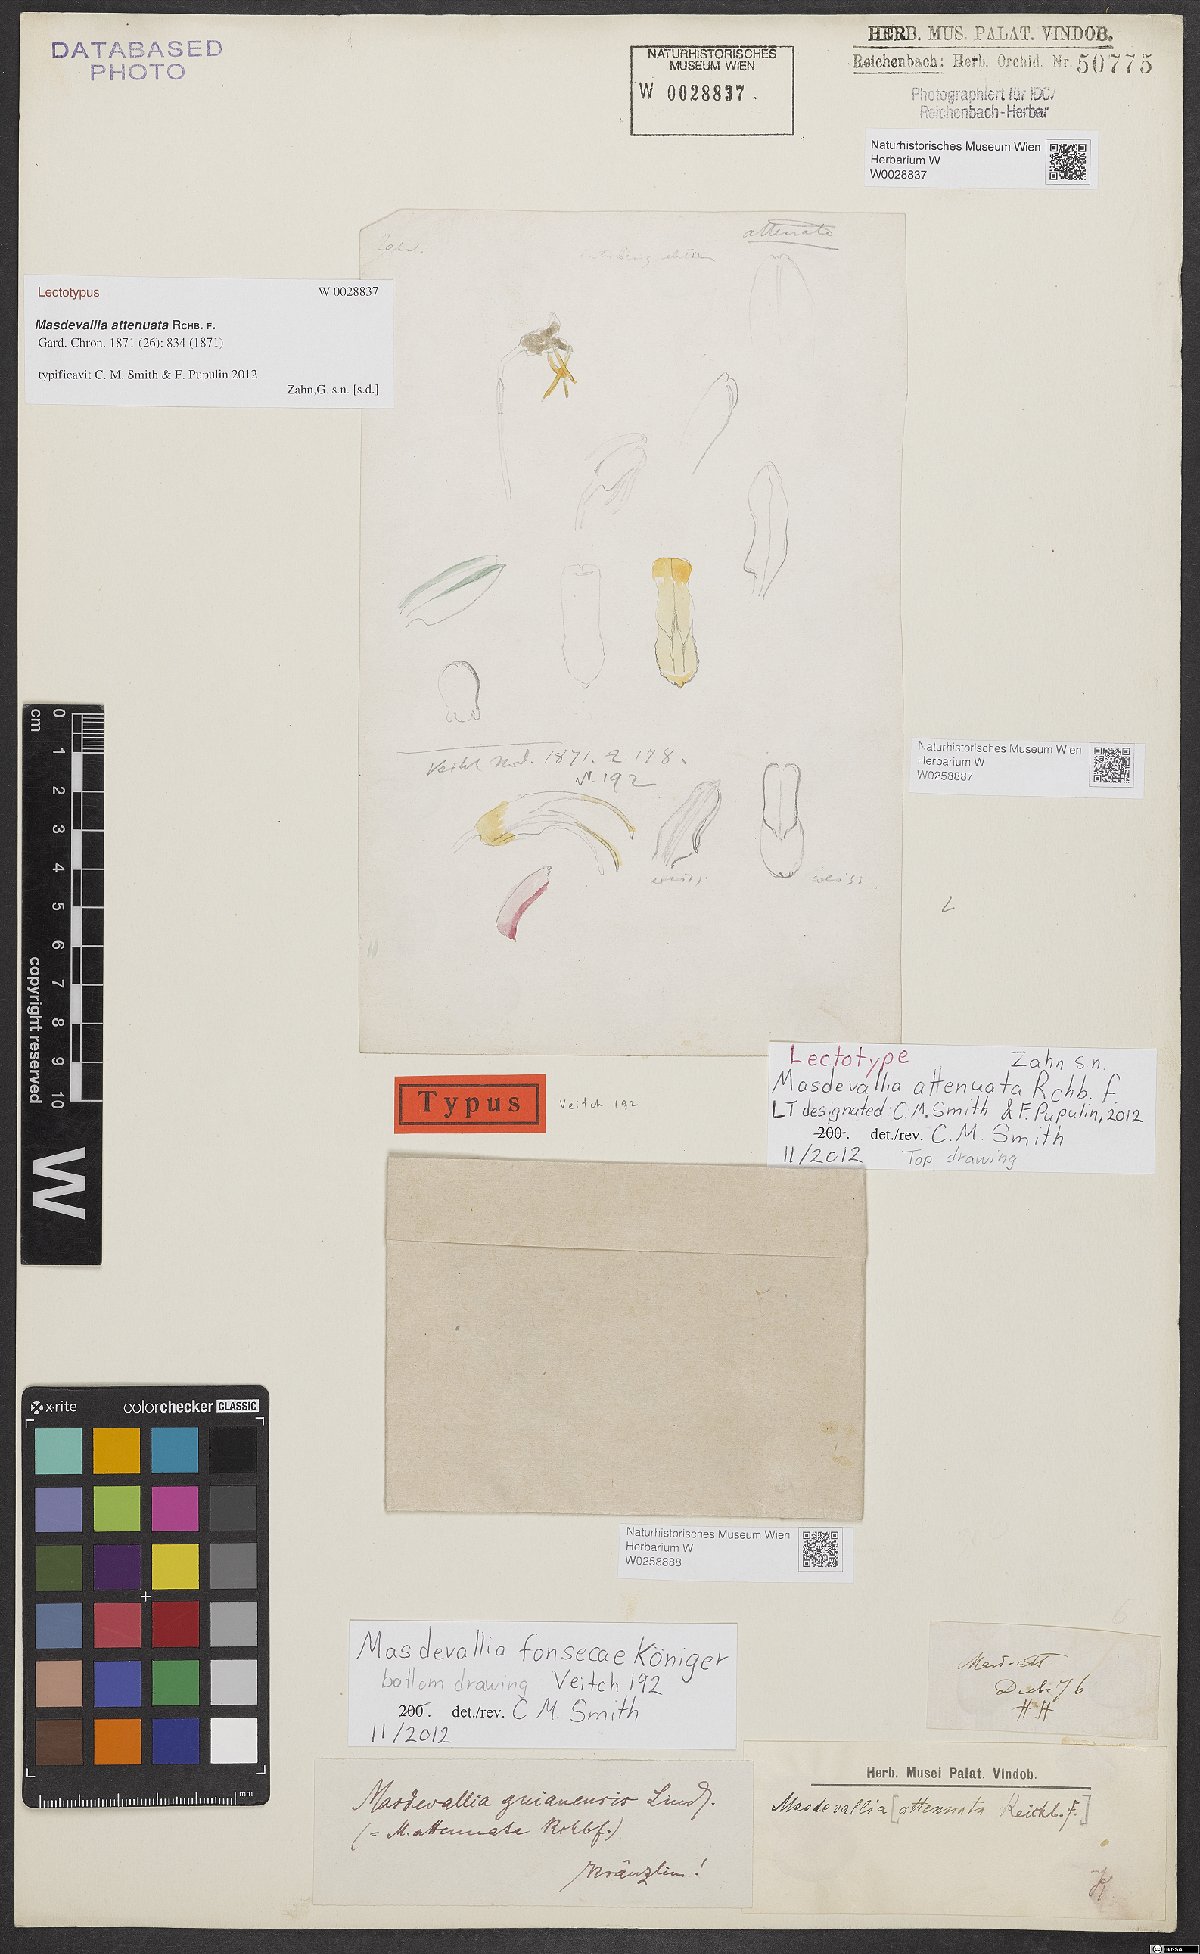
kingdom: Plantae
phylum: Tracheophyta
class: Liliopsida
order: Asparagales
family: Orchidaceae
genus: Masdevallia
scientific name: Masdevallia fonsecae
